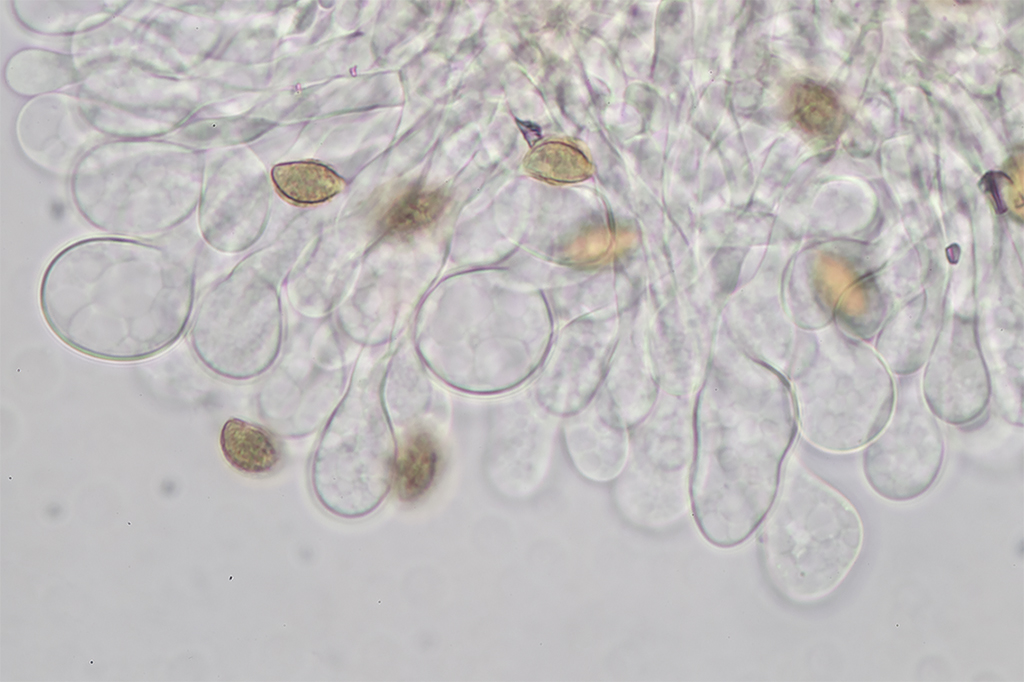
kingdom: Fungi
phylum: Basidiomycota
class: Agaricomycetes
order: Agaricales
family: Hymenogastraceae
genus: Naucoria
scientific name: Naucoria salicis
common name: pile-knaphat
